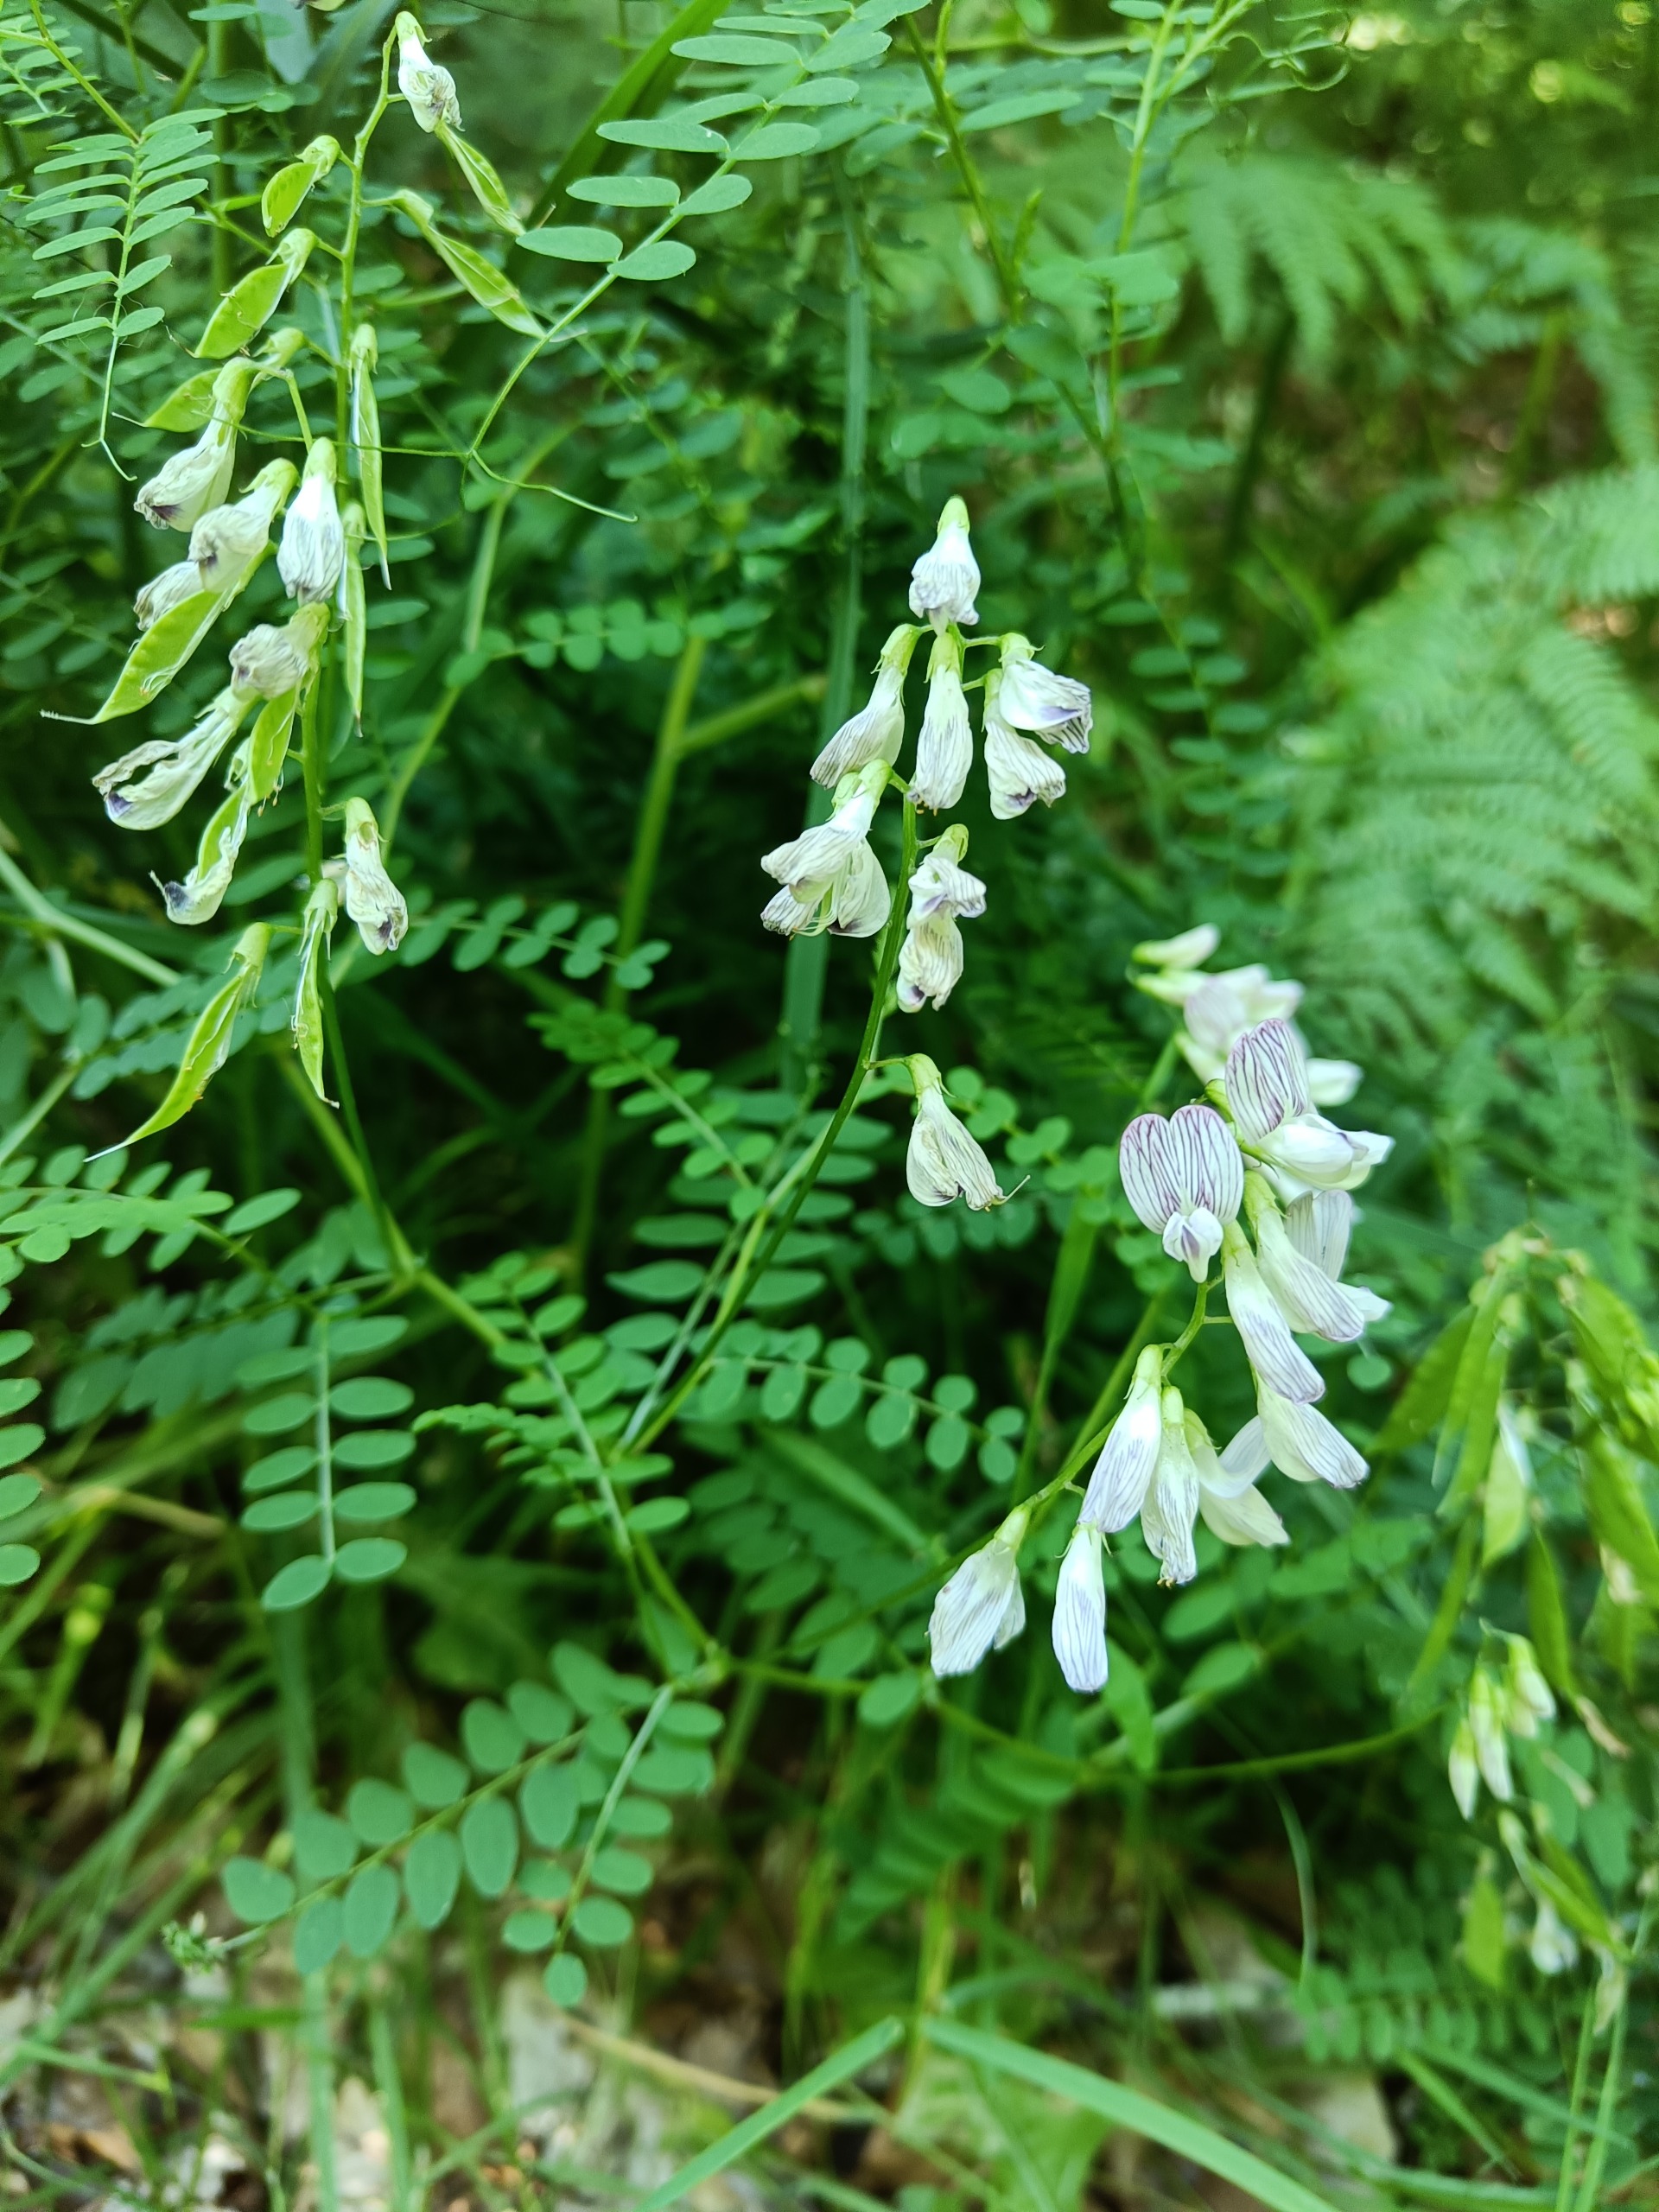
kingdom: Plantae
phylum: Tracheophyta
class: Magnoliopsida
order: Fabales
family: Fabaceae
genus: Vicia
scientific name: Vicia sylvatica
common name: Skov-vikke
